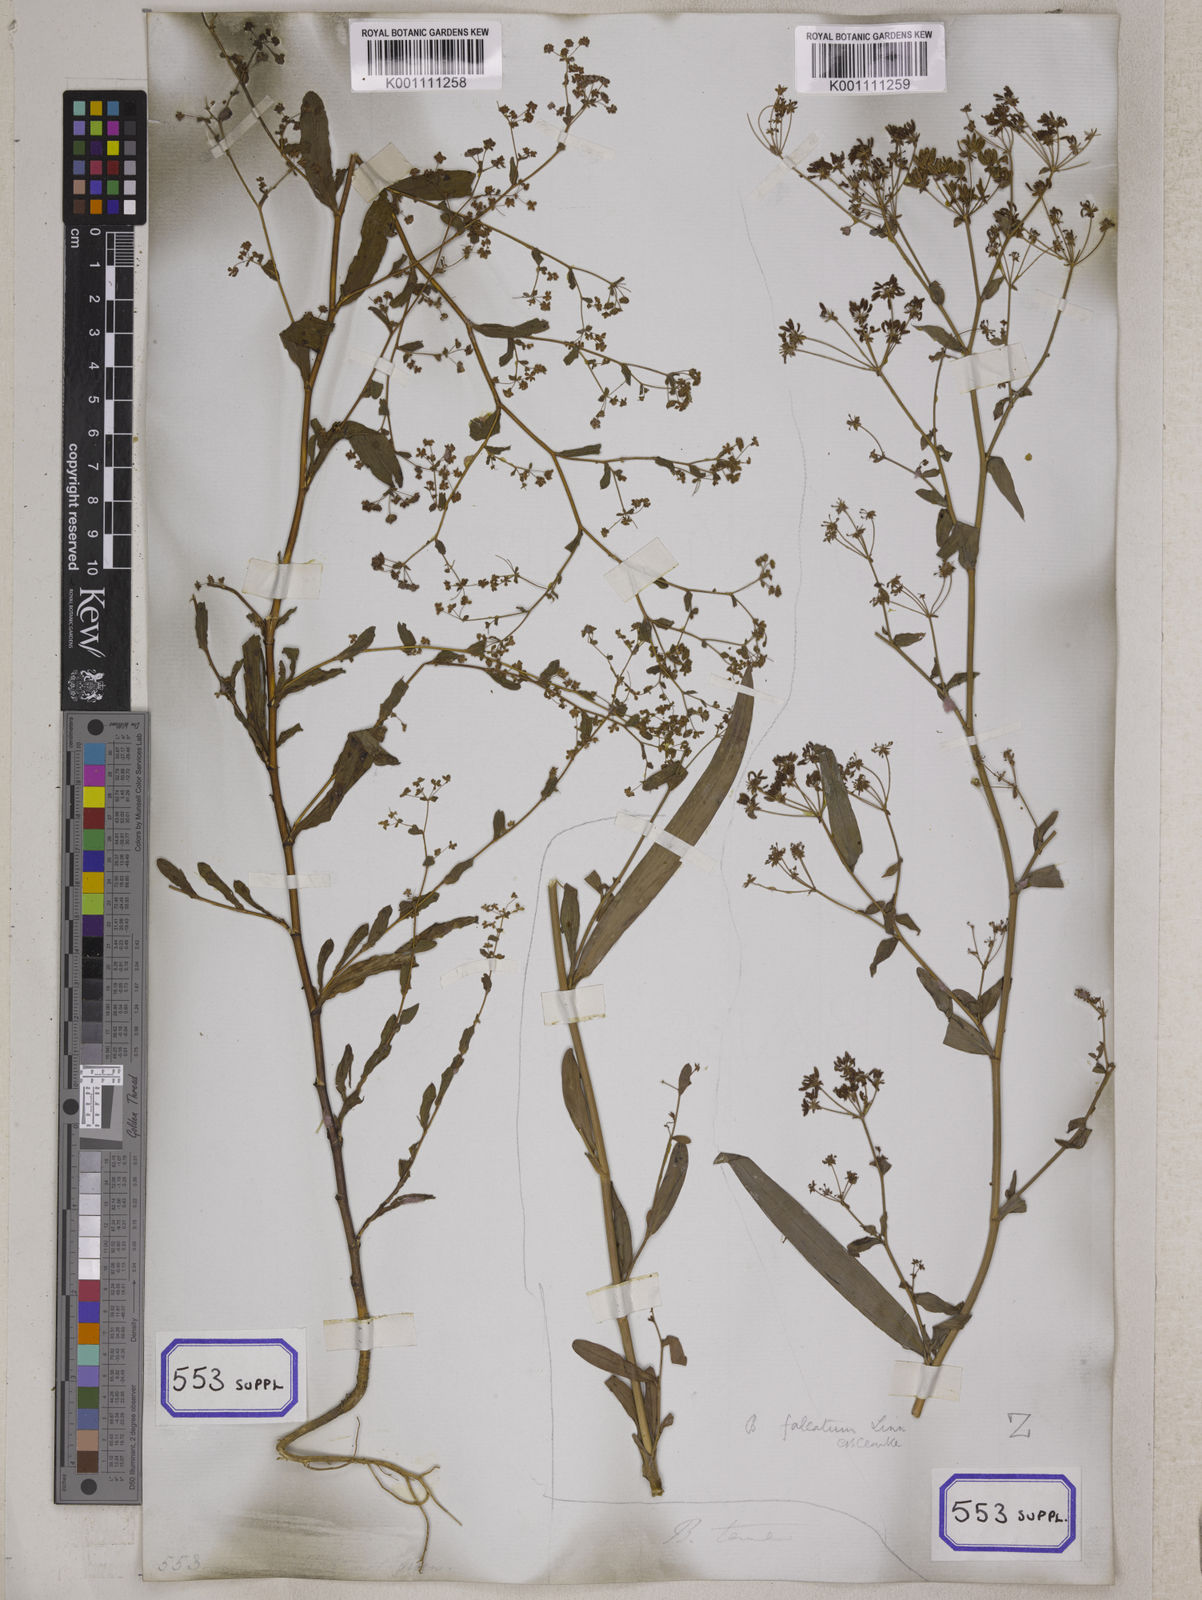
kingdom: Plantae
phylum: Tracheophyta
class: Magnoliopsida
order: Apiales
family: Apiaceae
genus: Bupleurum
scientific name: Bupleurum
